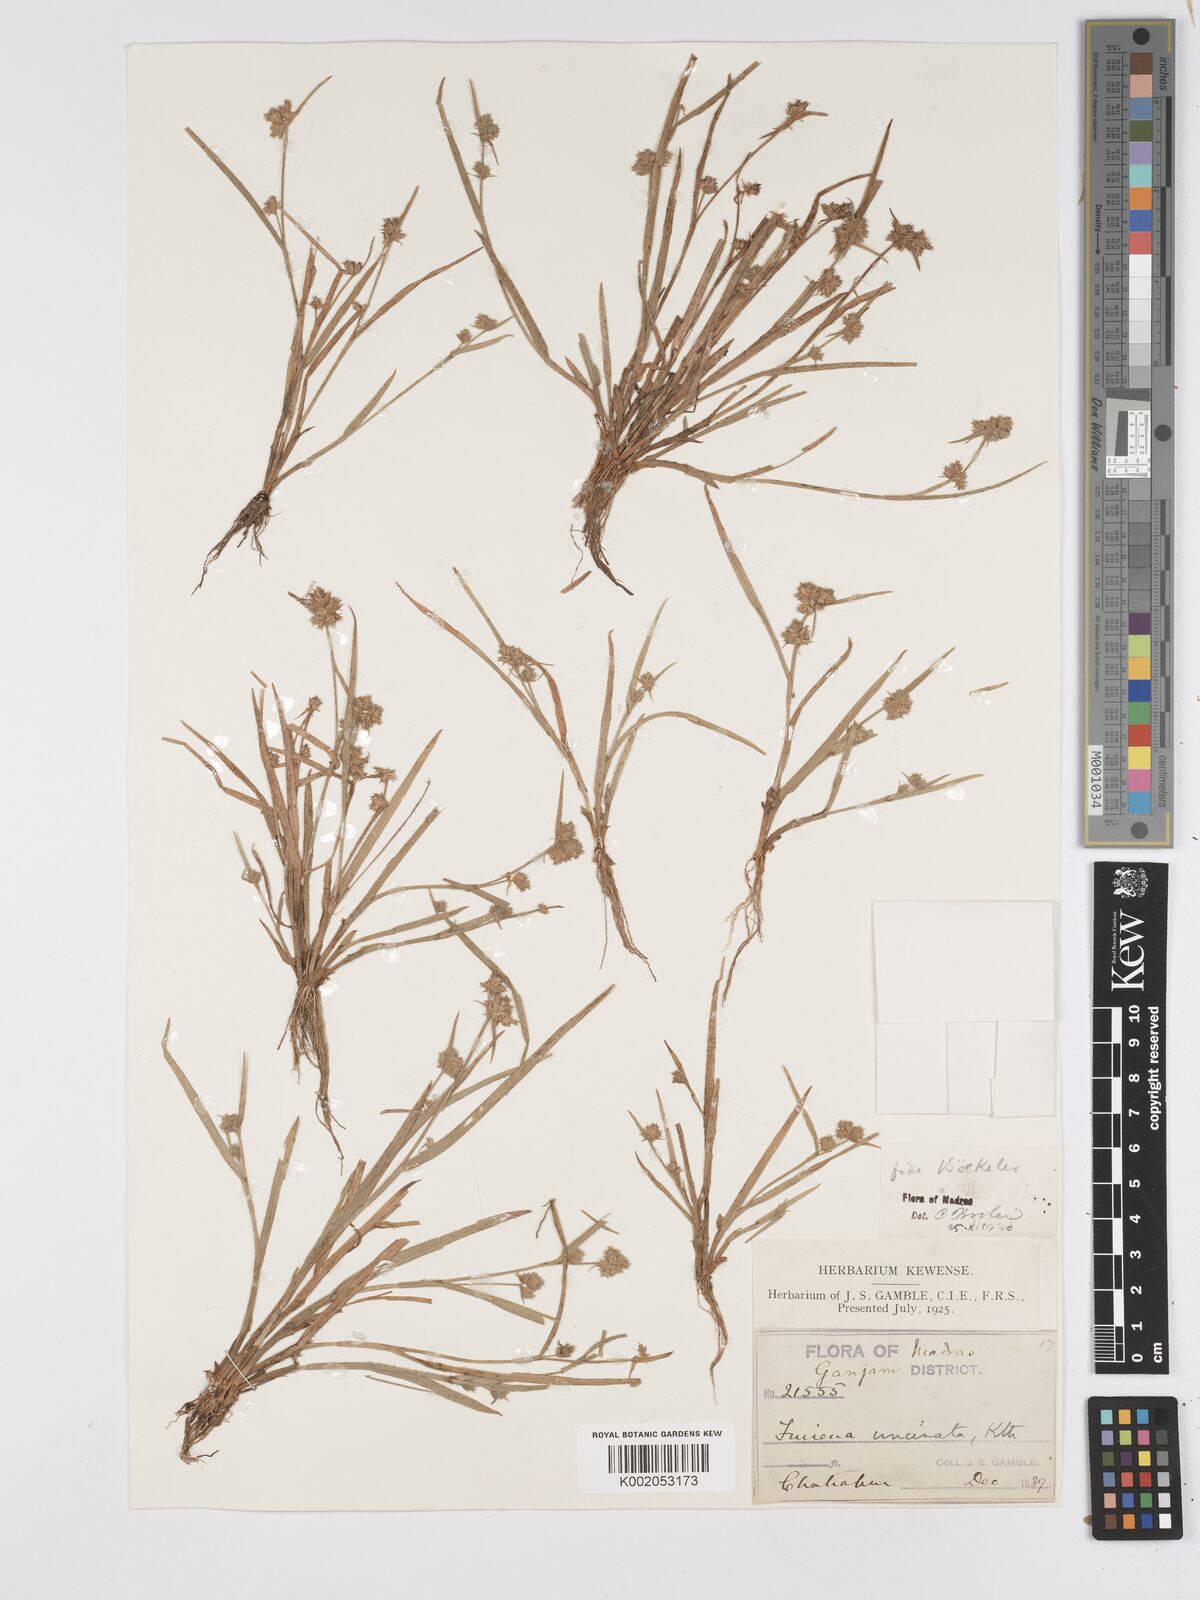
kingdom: Plantae
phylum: Tracheophyta
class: Liliopsida
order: Poales
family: Cyperaceae
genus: Fuirena
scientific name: Fuirena uncinata
